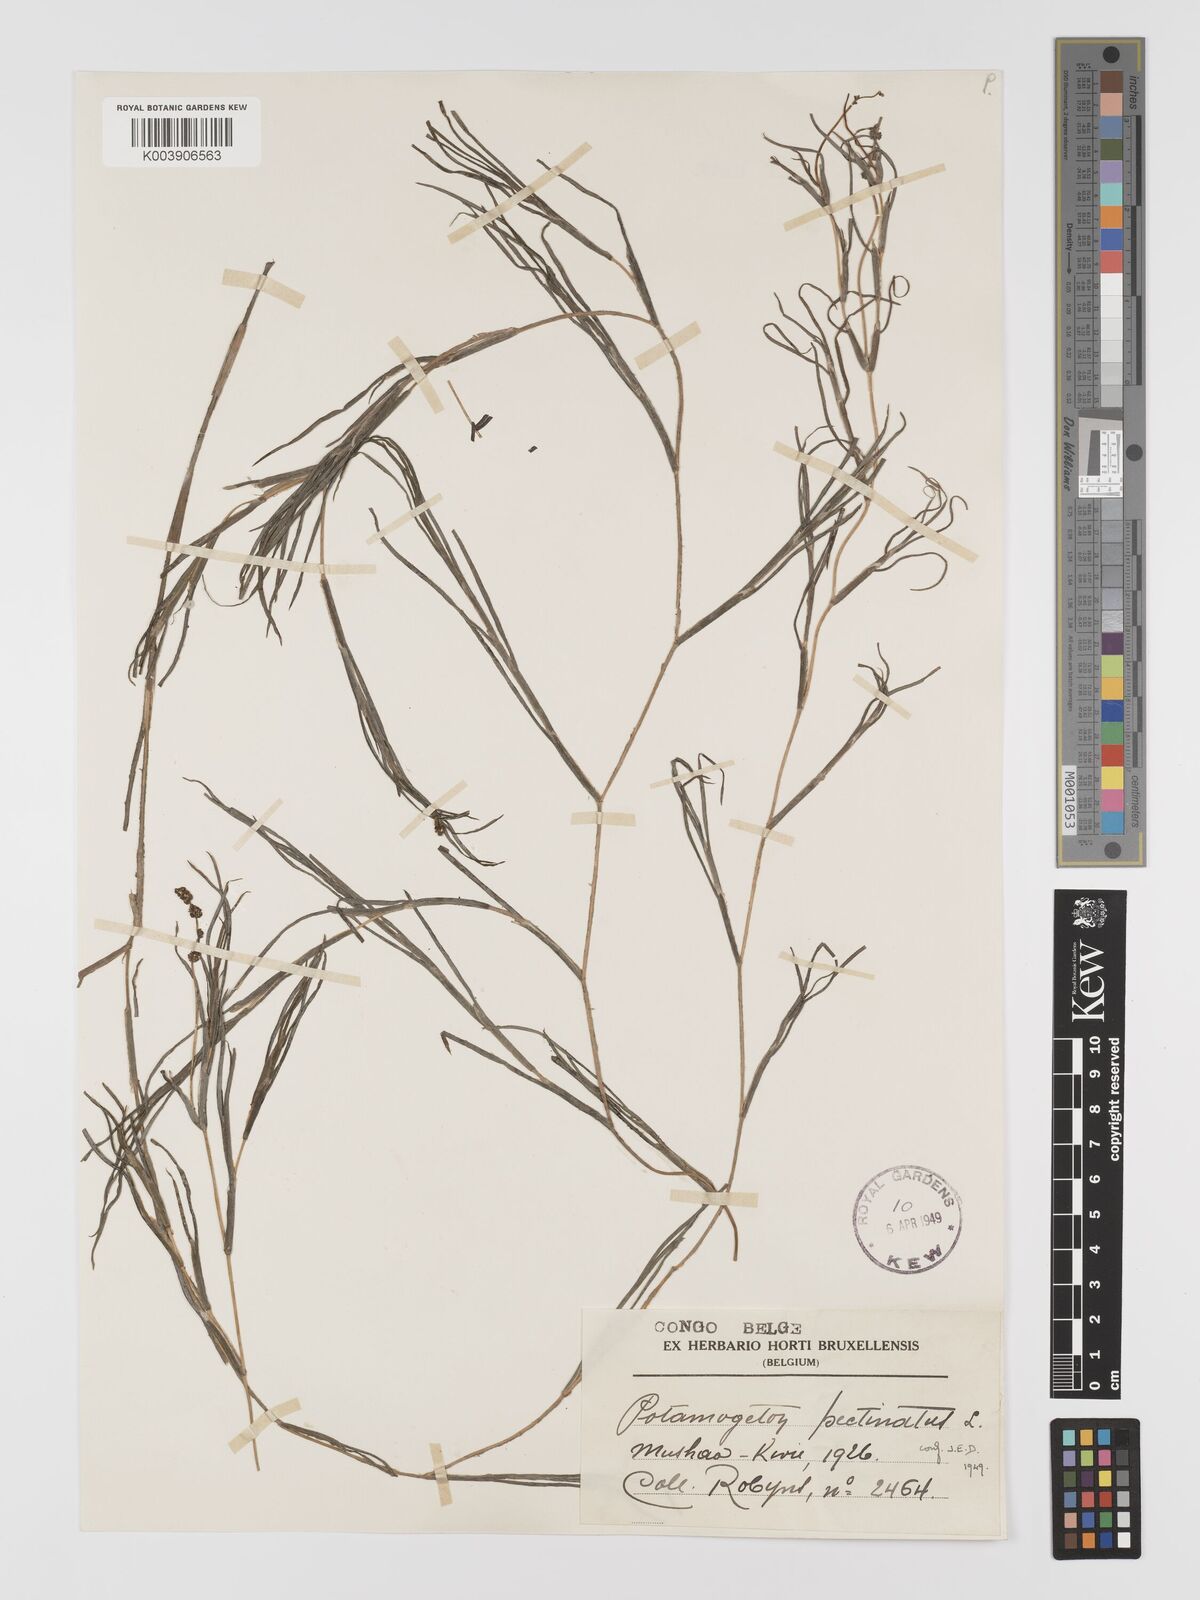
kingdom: Plantae
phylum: Tracheophyta
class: Liliopsida
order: Alismatales
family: Potamogetonaceae
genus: Stuckenia
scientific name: Stuckenia pectinata
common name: Sago pondweed
